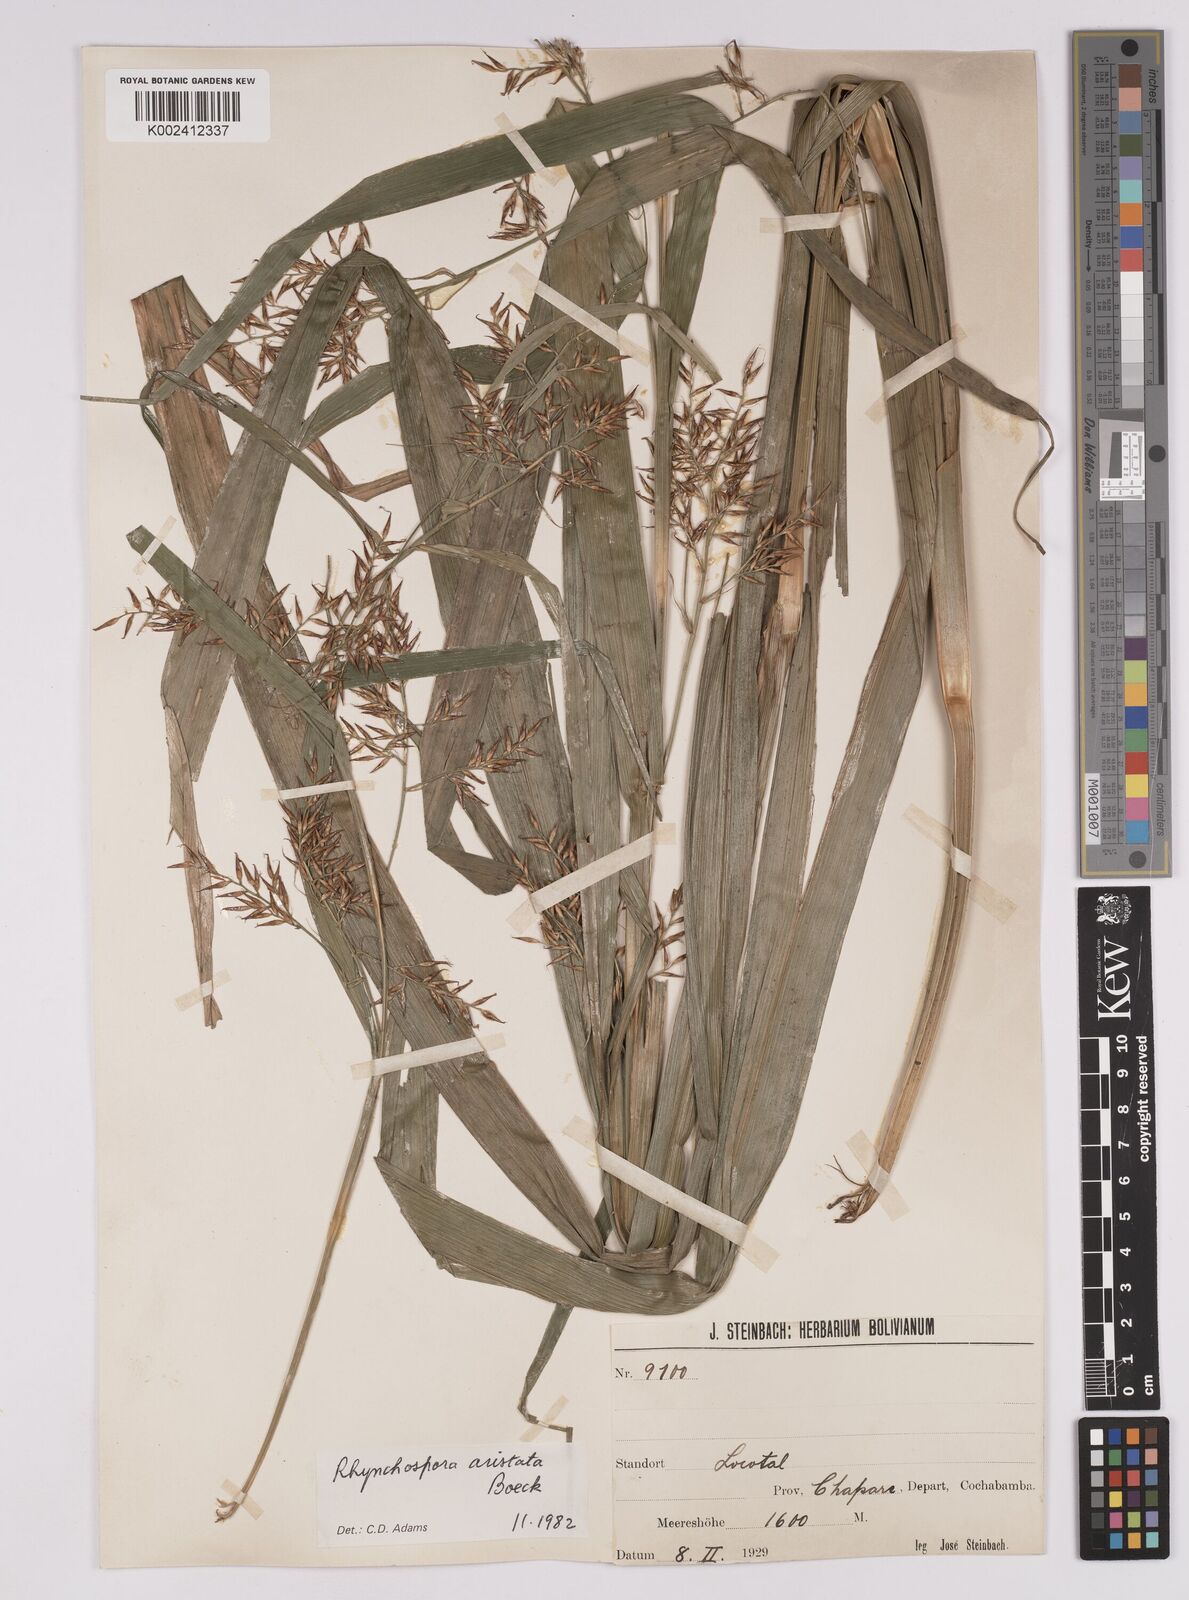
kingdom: Plantae
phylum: Tracheophyta
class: Liliopsida
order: Poales
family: Cyperaceae
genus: Rhynchospora
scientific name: Rhynchospora aristata
